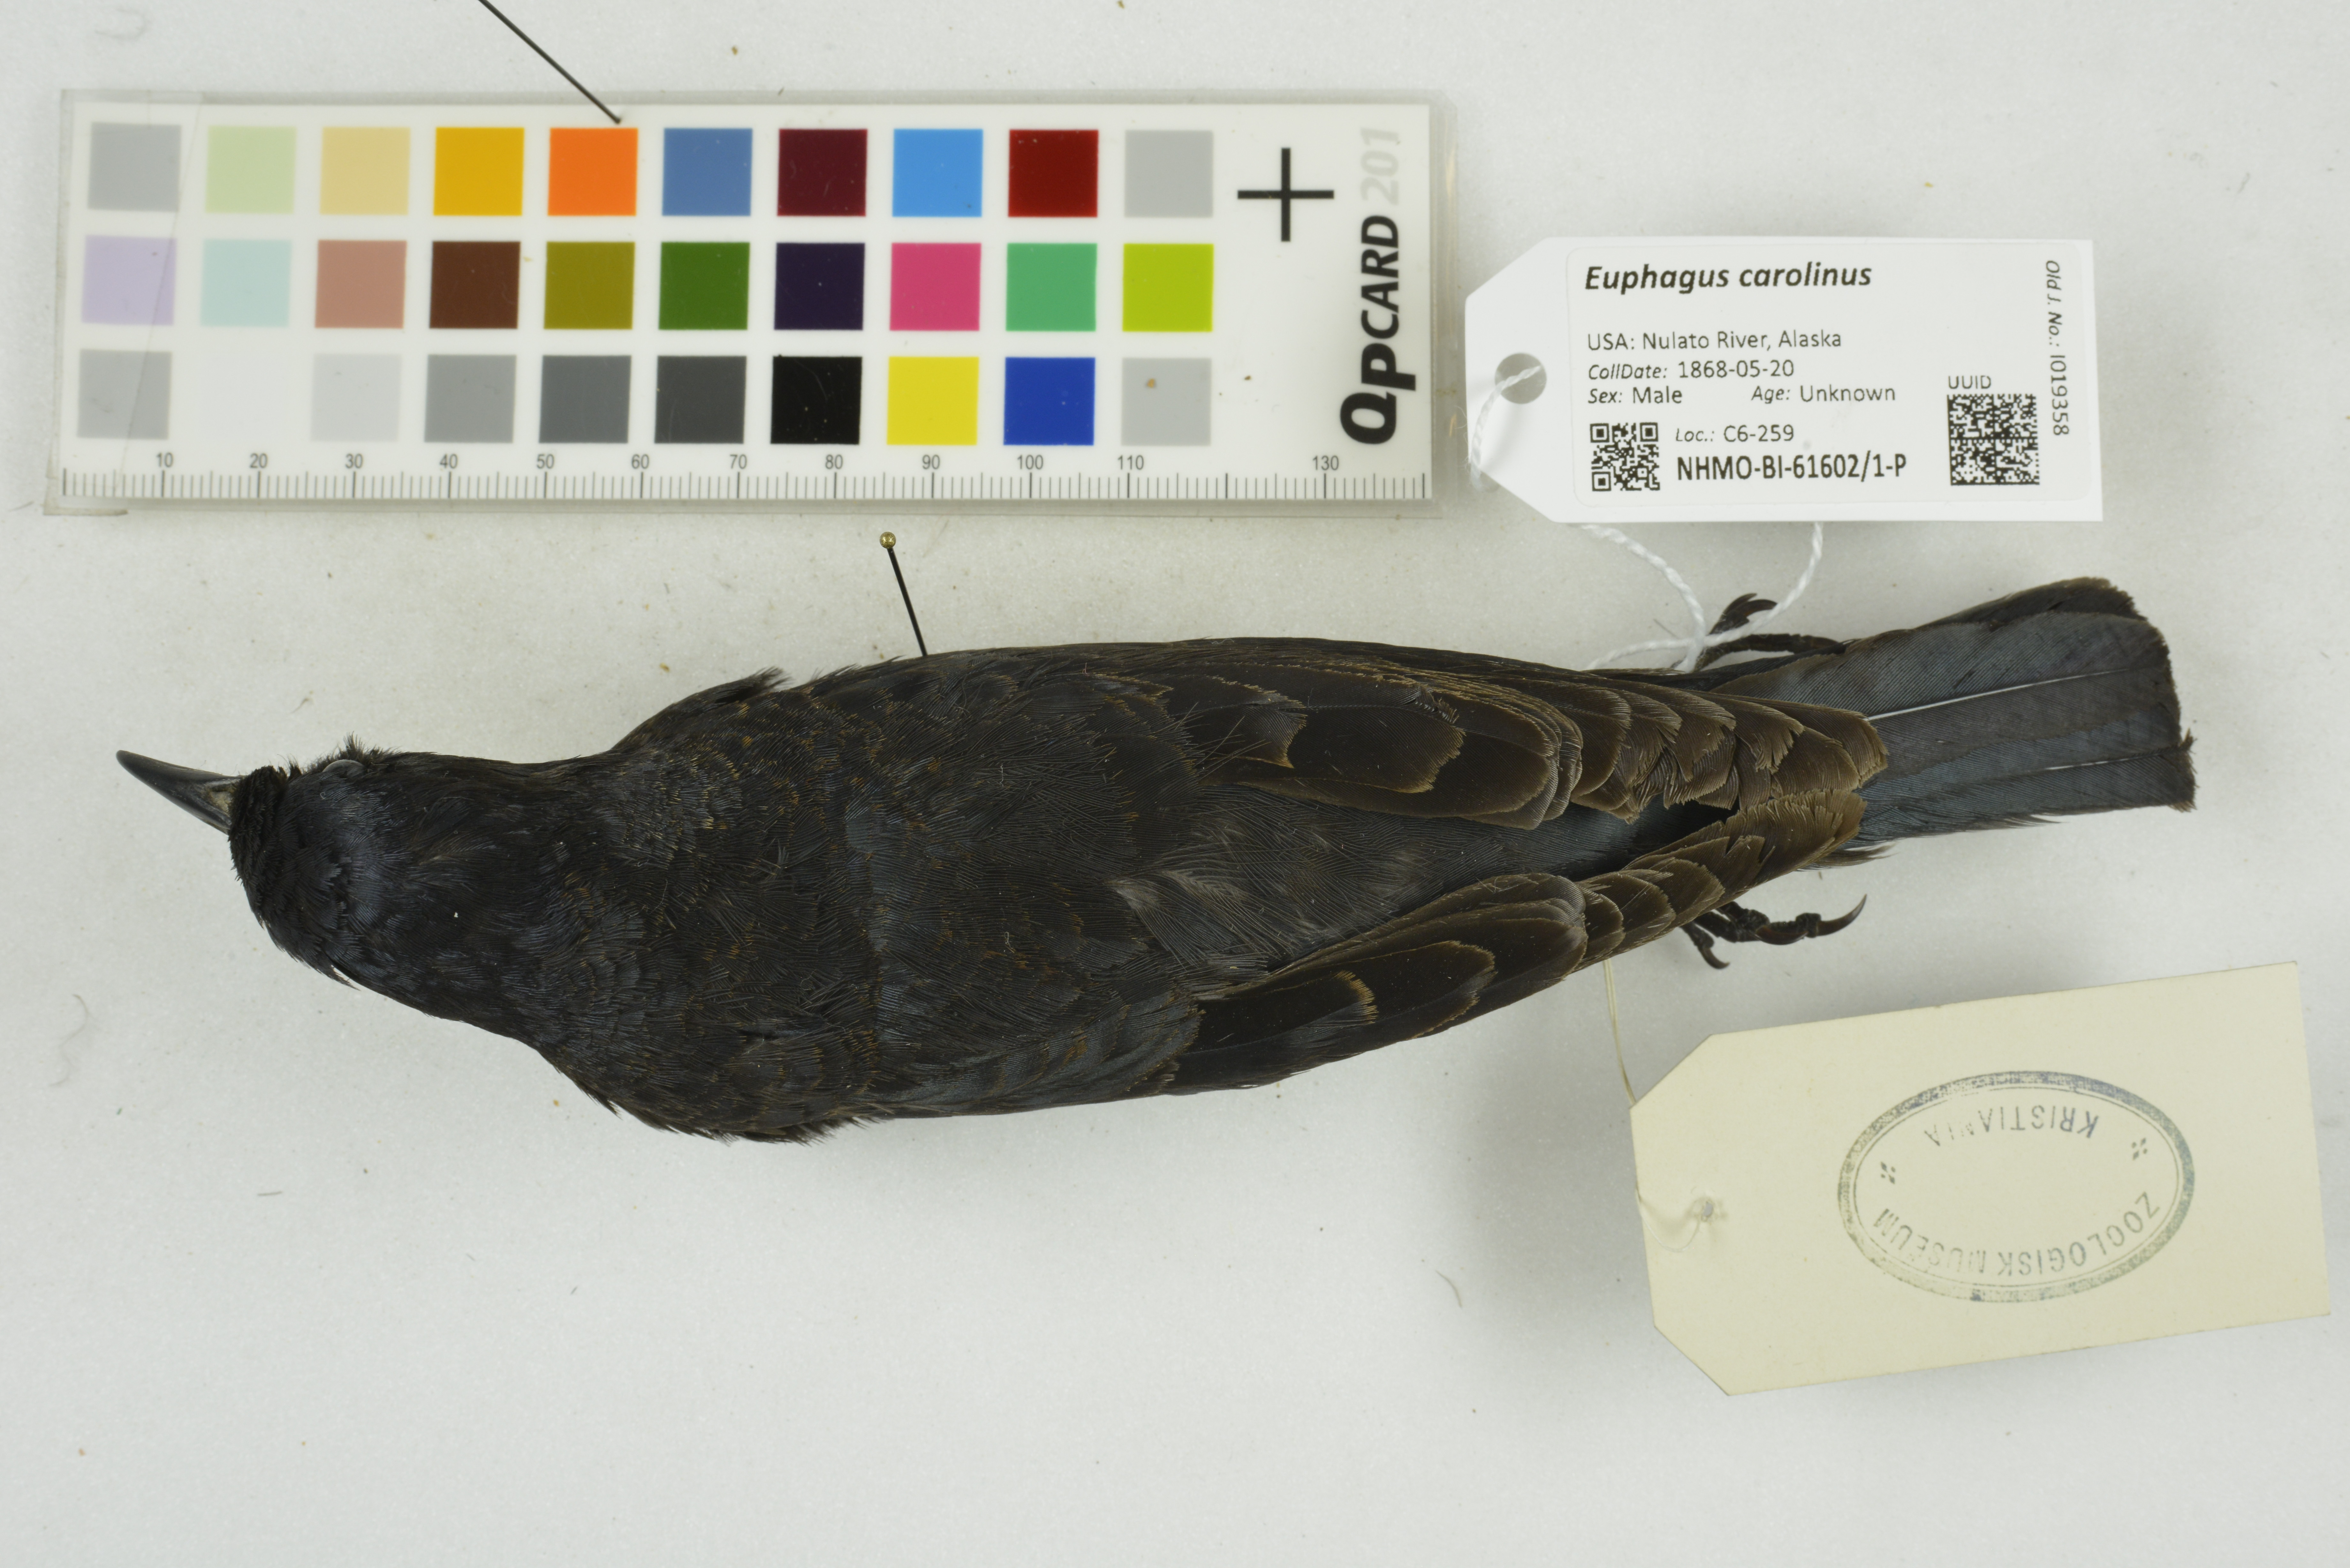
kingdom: Animalia
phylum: Chordata
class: Aves
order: Passeriformes
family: Icteridae
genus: Euphagus
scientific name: Euphagus carolinus
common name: Rusty blackbird
